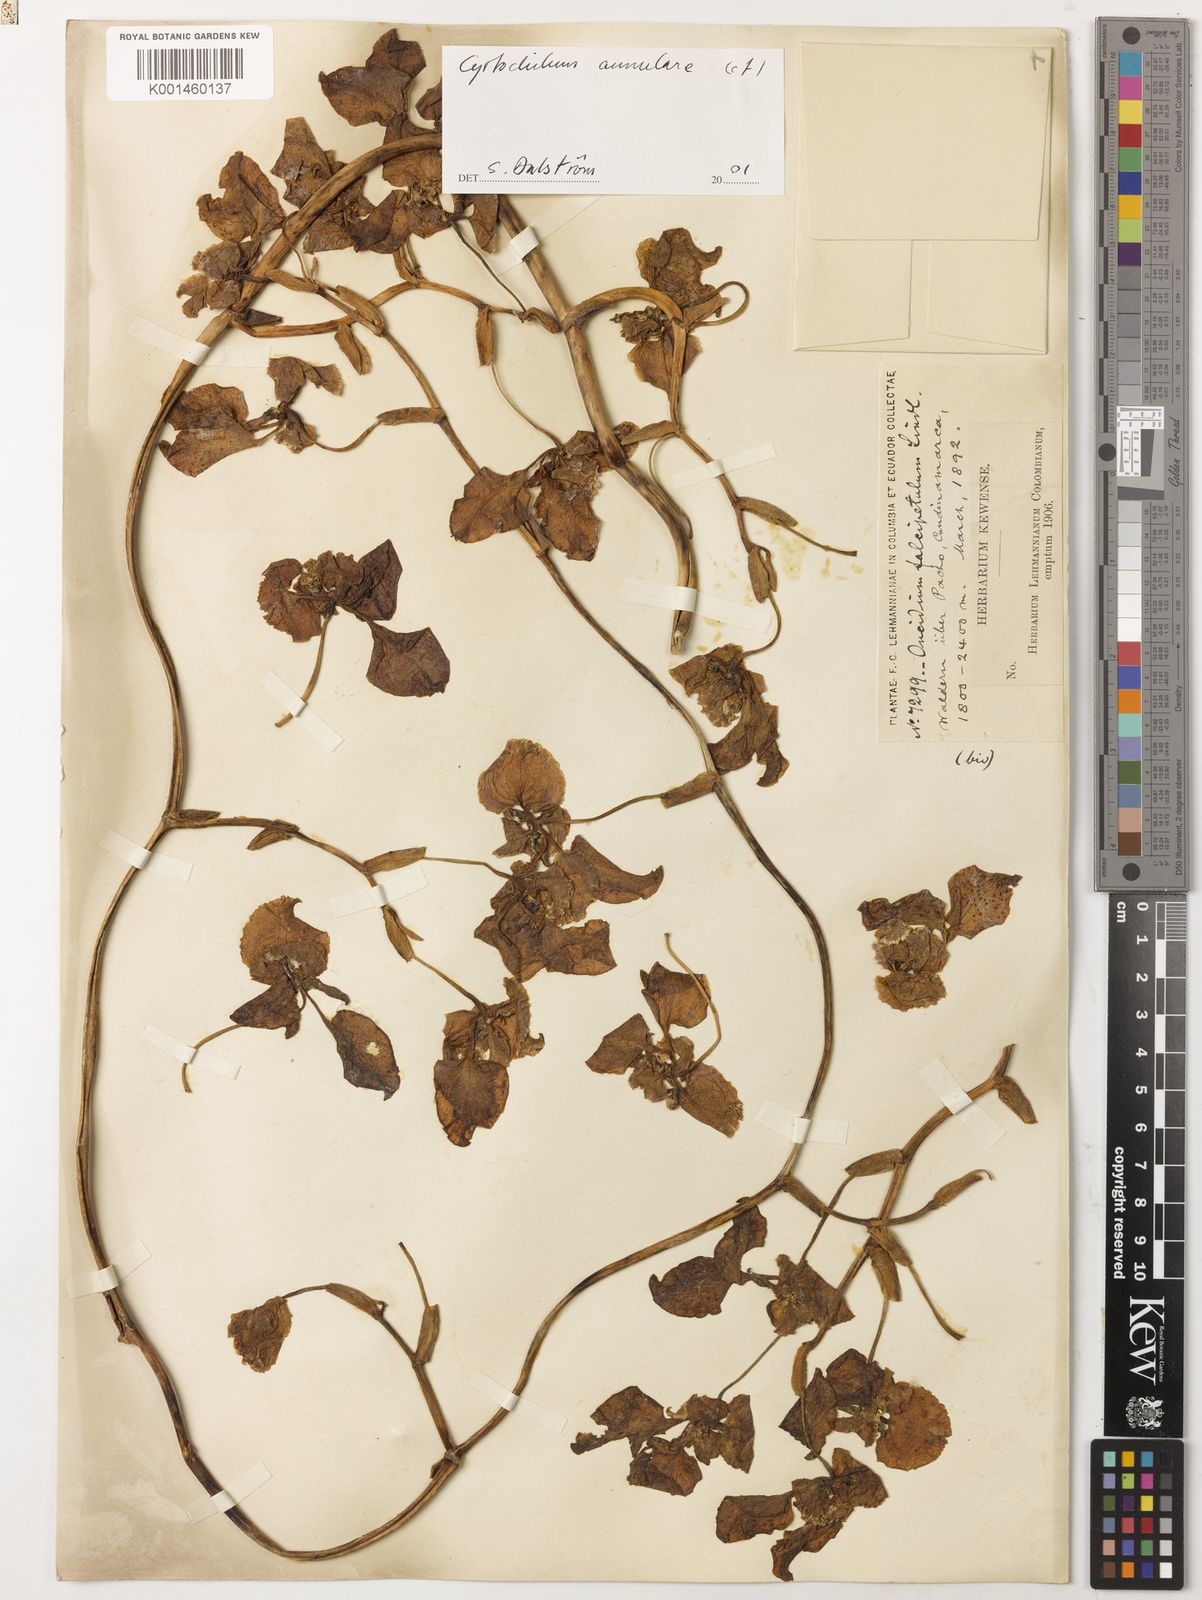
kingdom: Plantae
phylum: Tracheophyta
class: Liliopsida
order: Asparagales
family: Orchidaceae
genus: Cyrtochilum
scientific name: Cyrtochilum annulare
